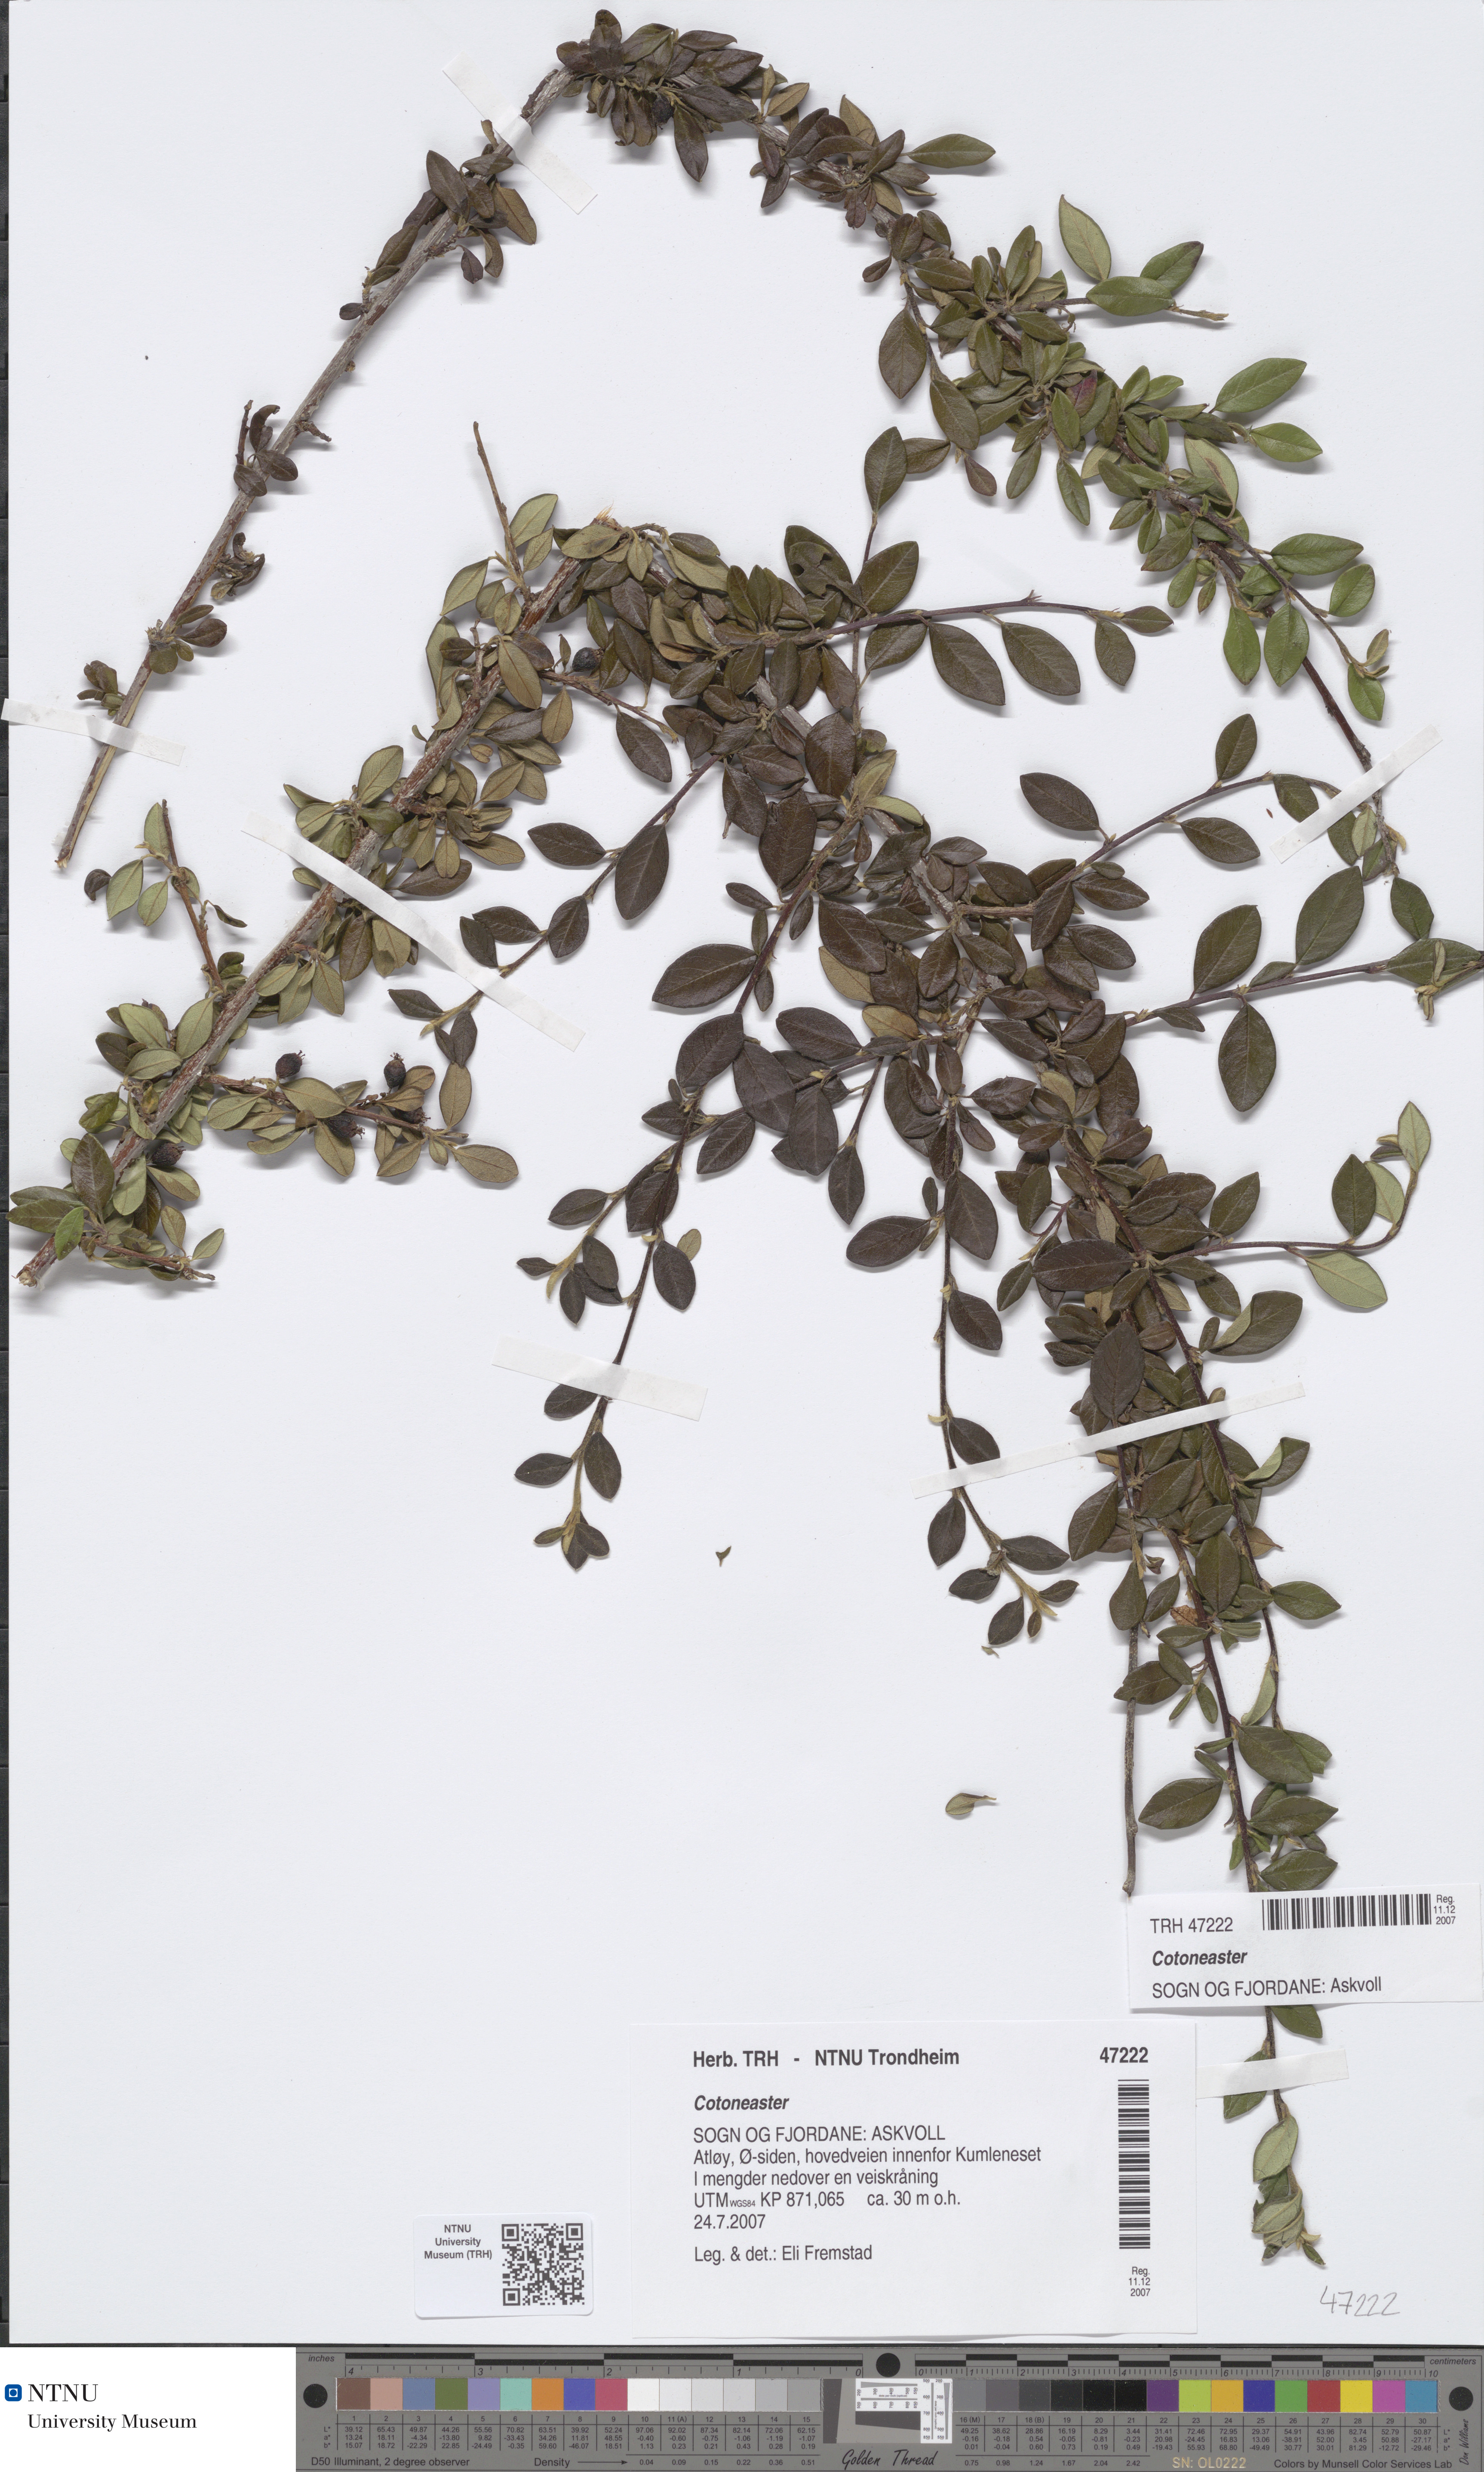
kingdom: Plantae
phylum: Tracheophyta
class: Magnoliopsida
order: Rosales
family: Rosaceae
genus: Cotoneaster
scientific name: Cotoneaster symondsii
